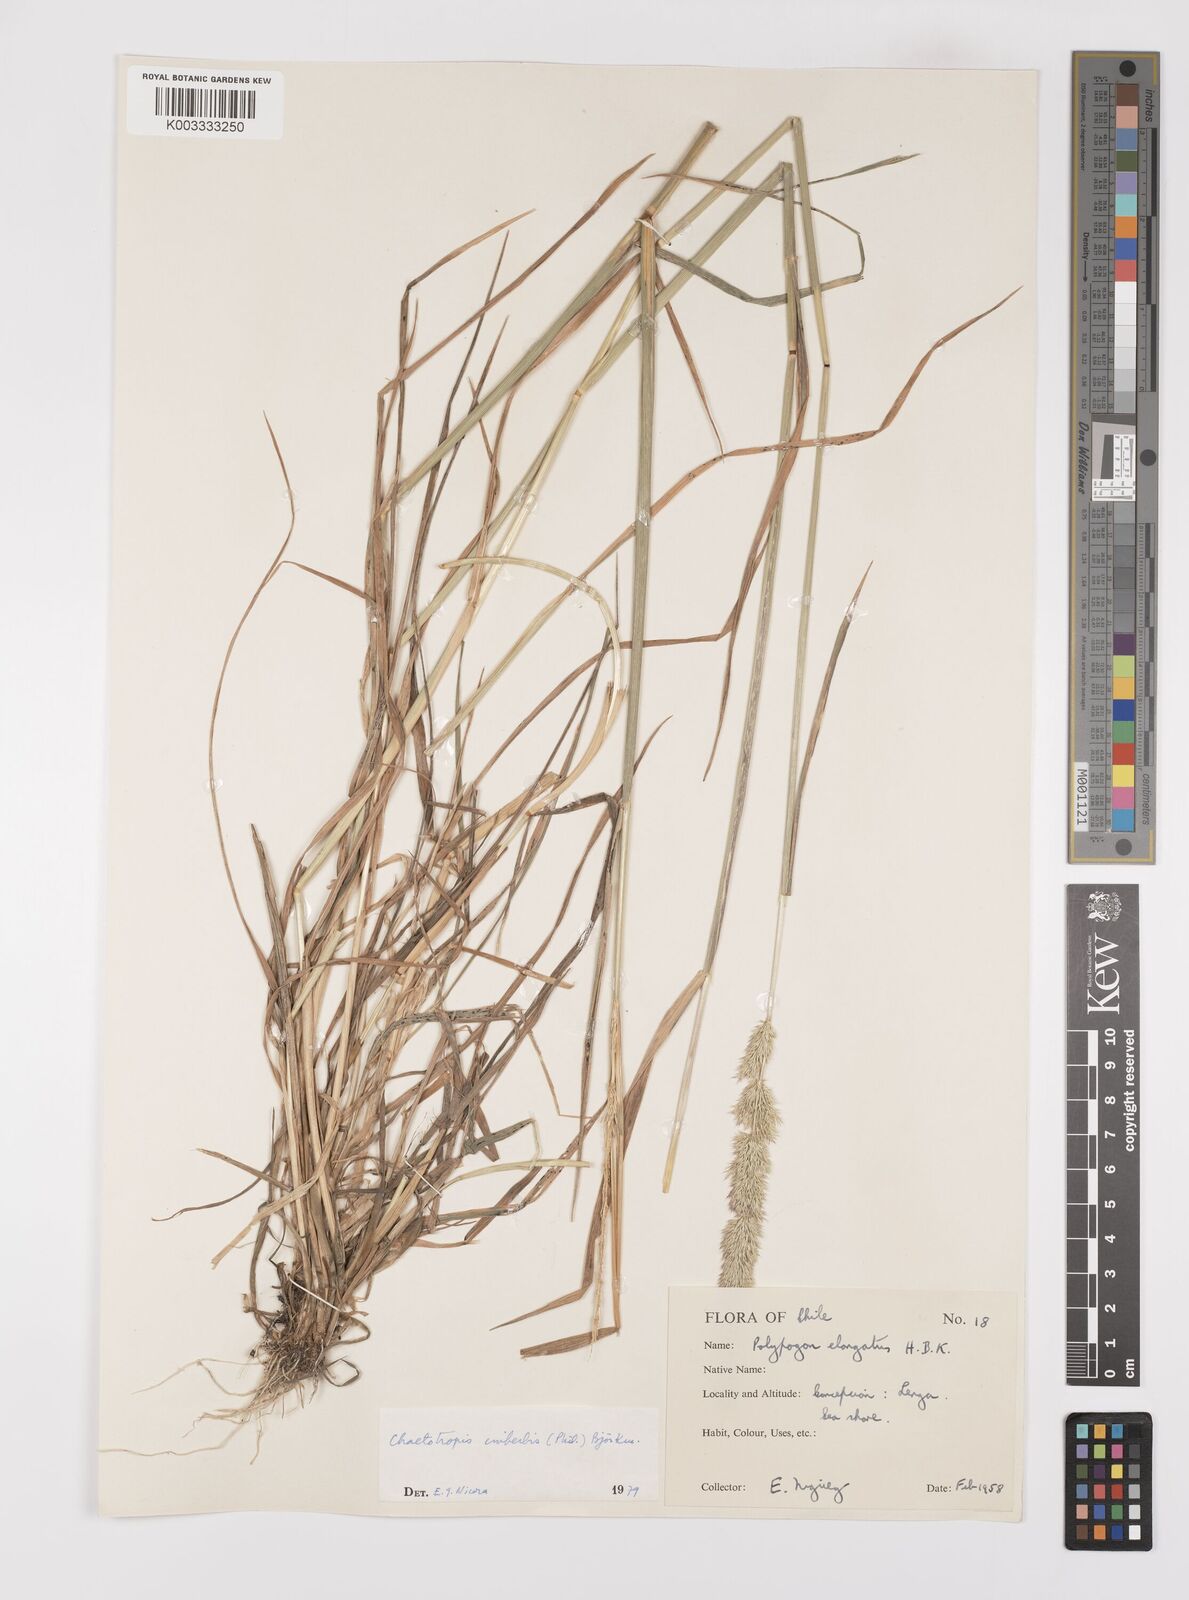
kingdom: Plantae
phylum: Tracheophyta
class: Liliopsida
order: Poales
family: Poaceae
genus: Polypogon
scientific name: Polypogon imberbis
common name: Beardless rabbitsfoot grass
